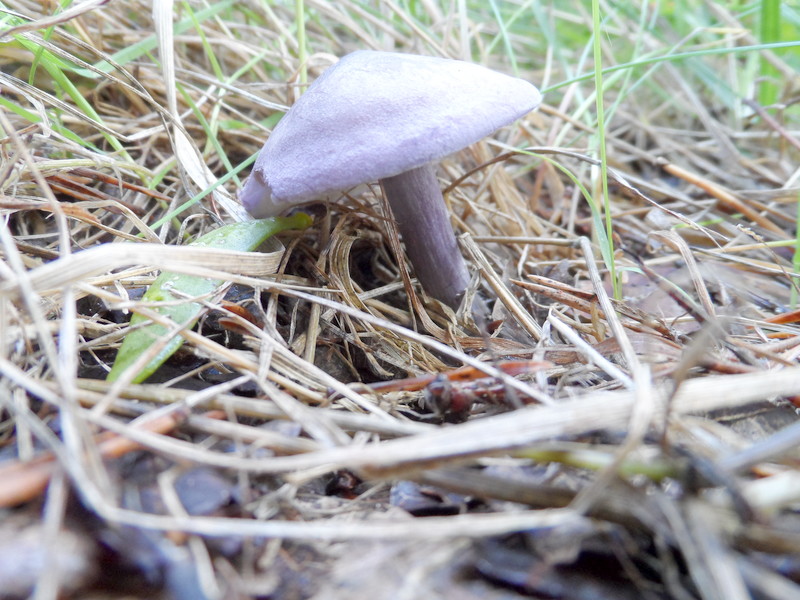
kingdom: Fungi
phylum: Basidiomycota
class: Agaricomycetes
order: Agaricales
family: Lyophyllaceae
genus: Calocybe
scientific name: Calocybe ionides
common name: Violet domecap
